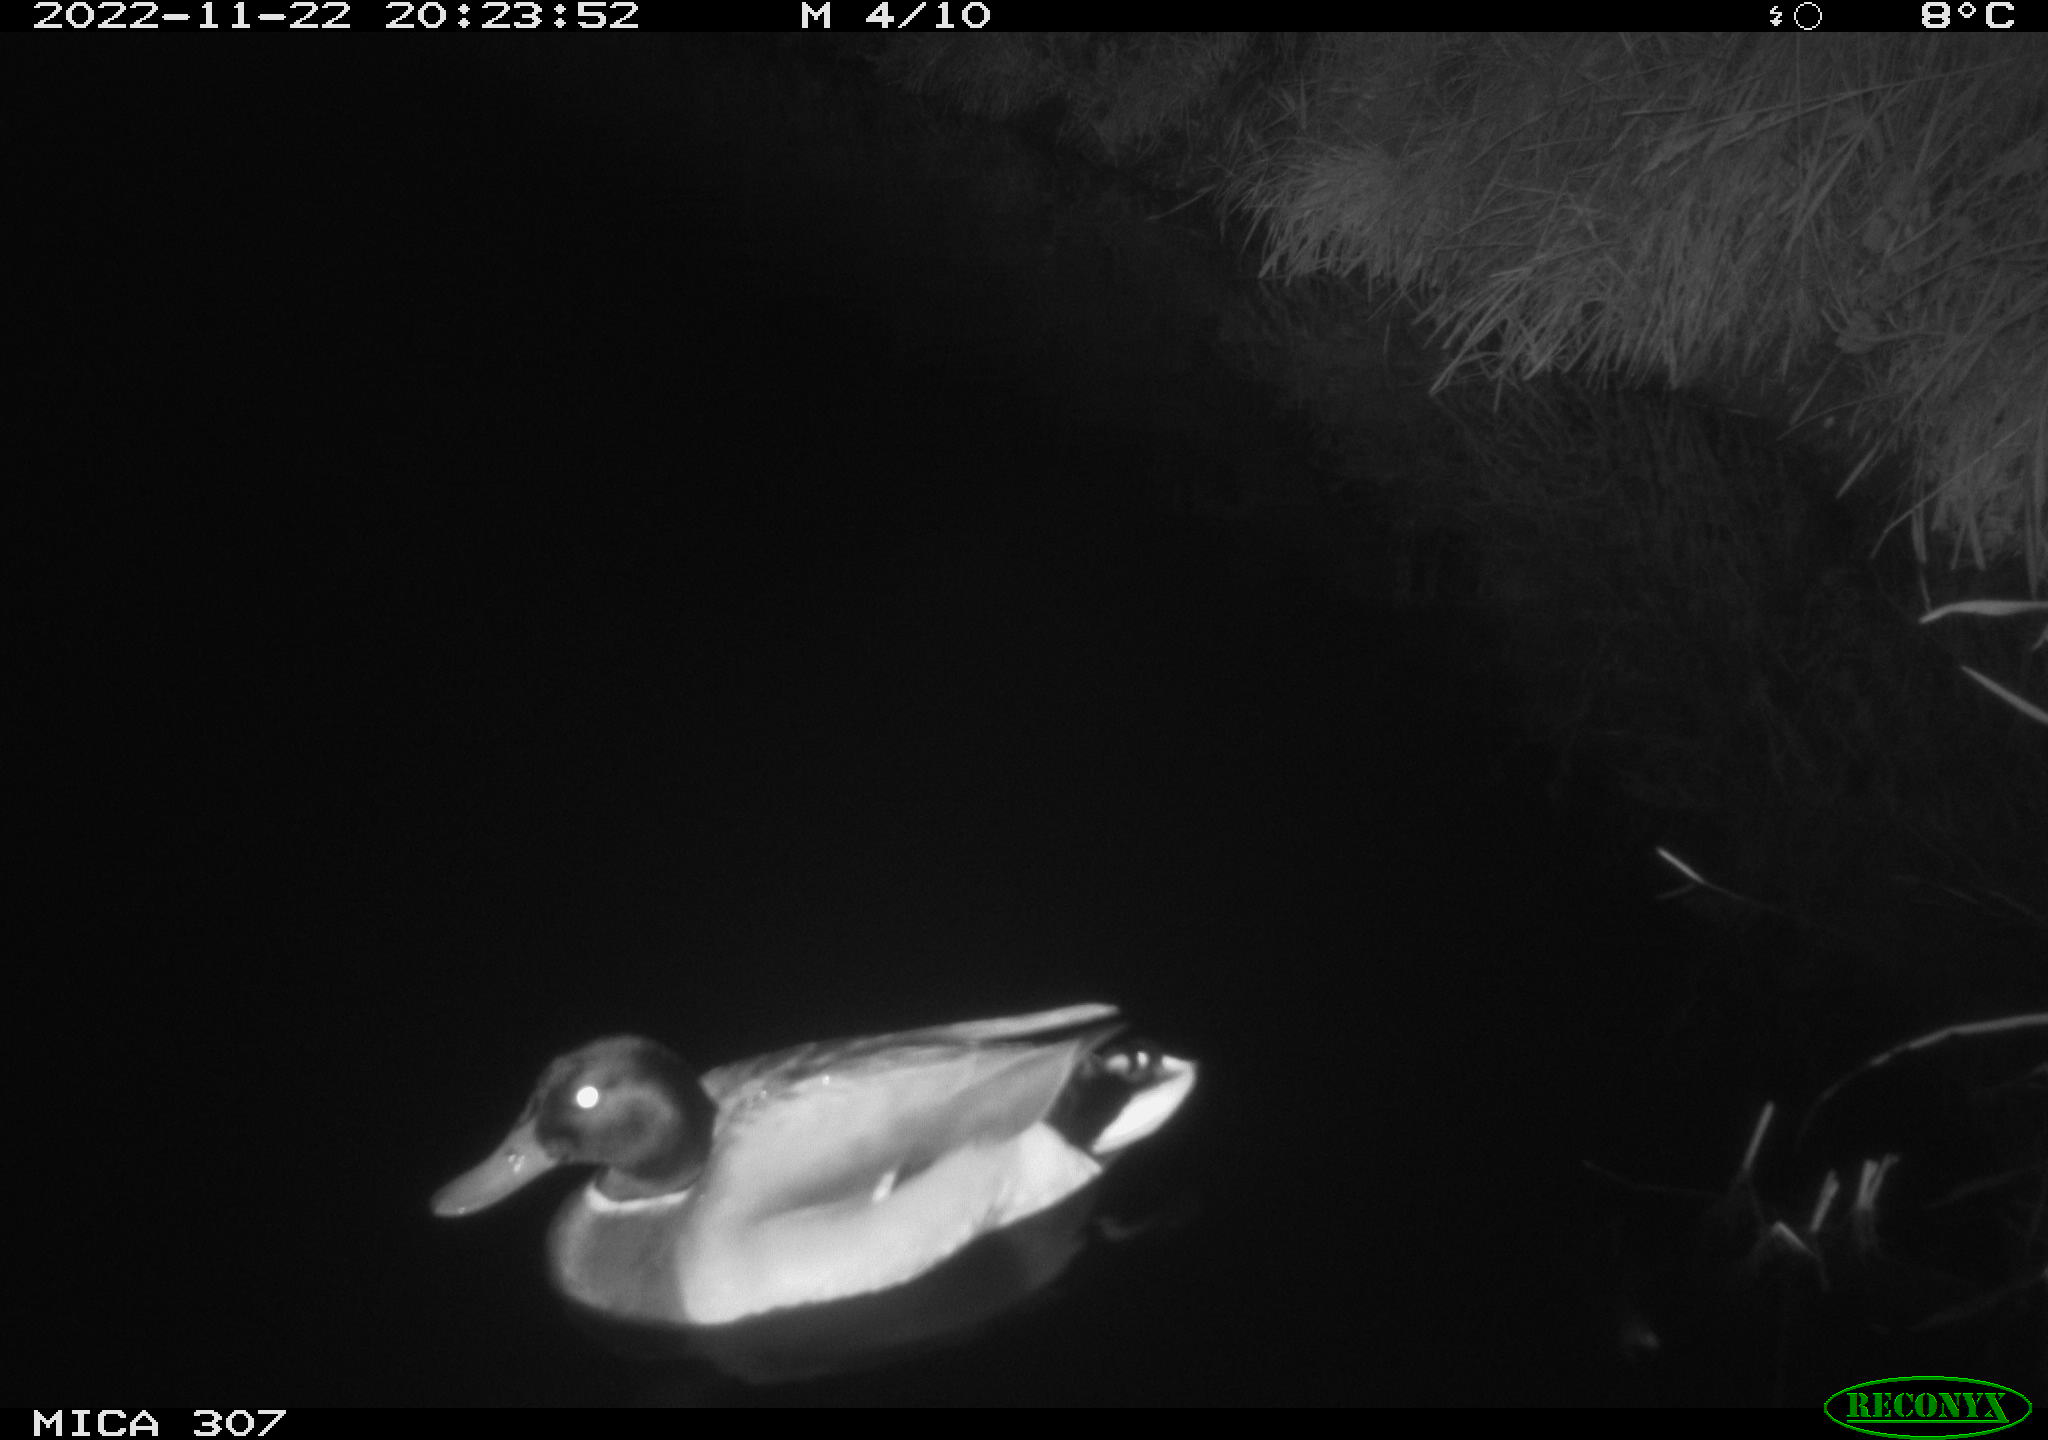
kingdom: Animalia
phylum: Chordata
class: Aves
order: Anseriformes
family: Anatidae
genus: Anas
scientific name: Anas
